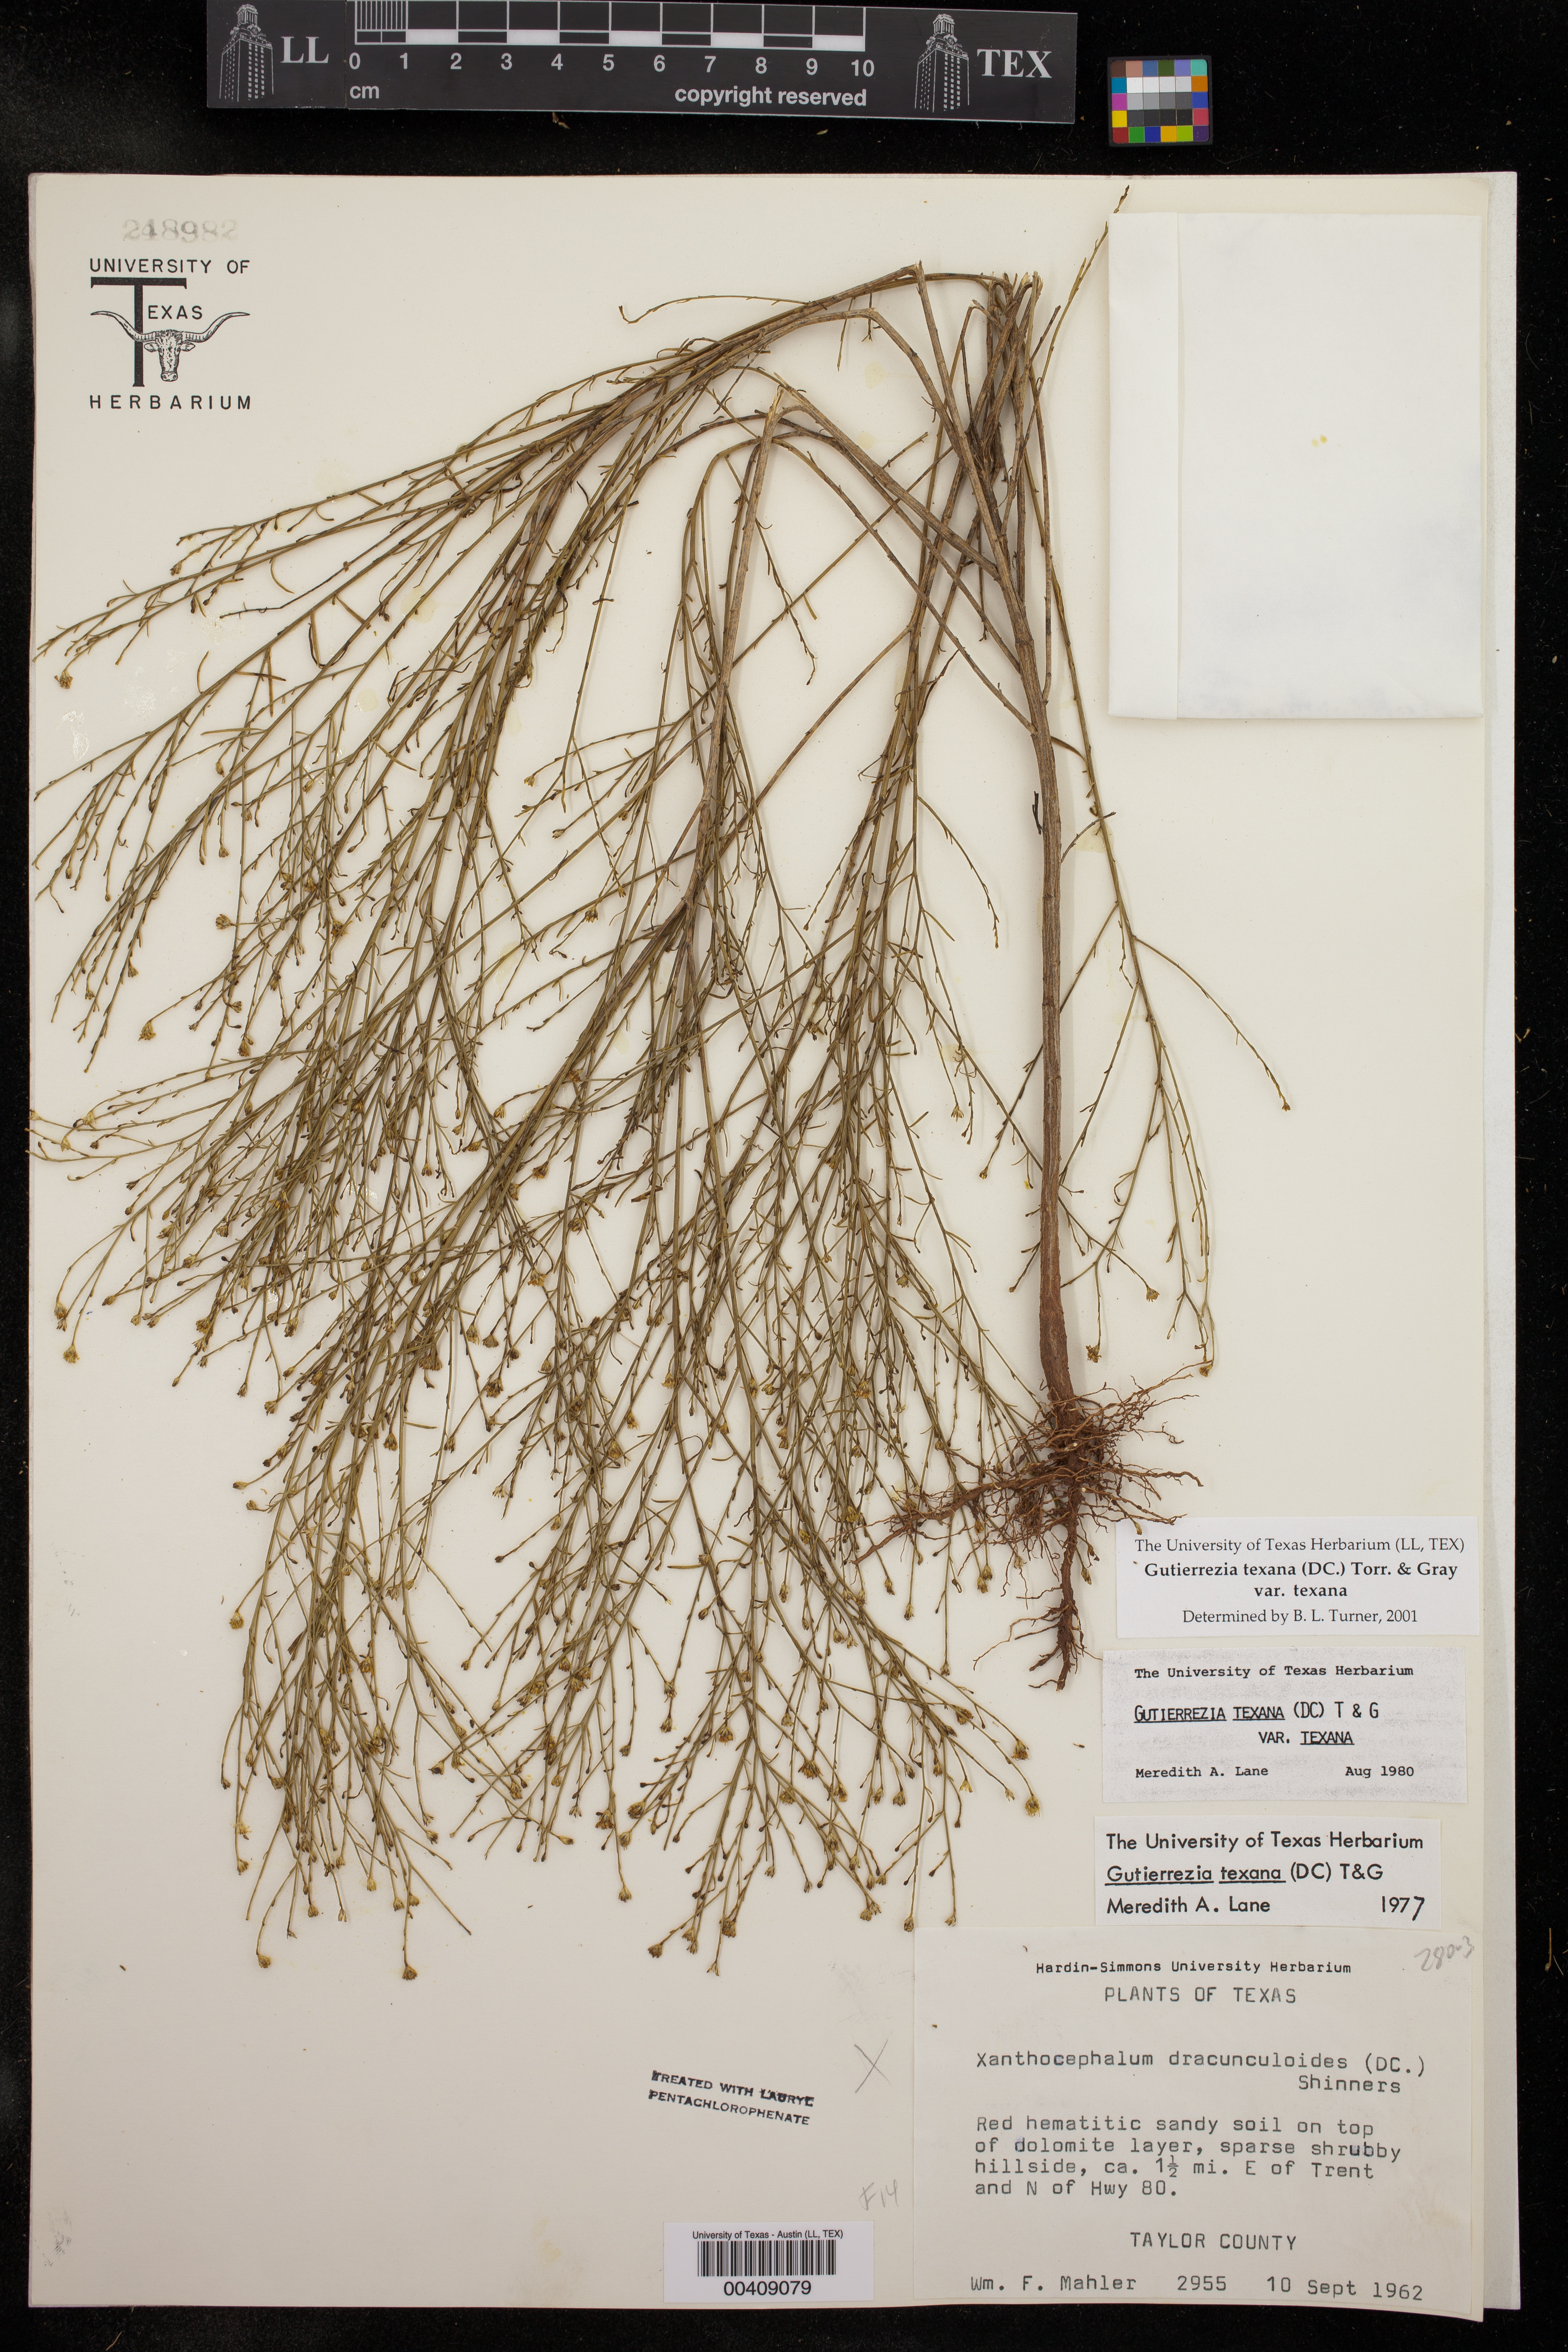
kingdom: Plantae
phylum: Tracheophyta
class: Magnoliopsida
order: Asterales
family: Asteraceae
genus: Gutierrezia
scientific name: Gutierrezia texana
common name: Texas snakeweed
